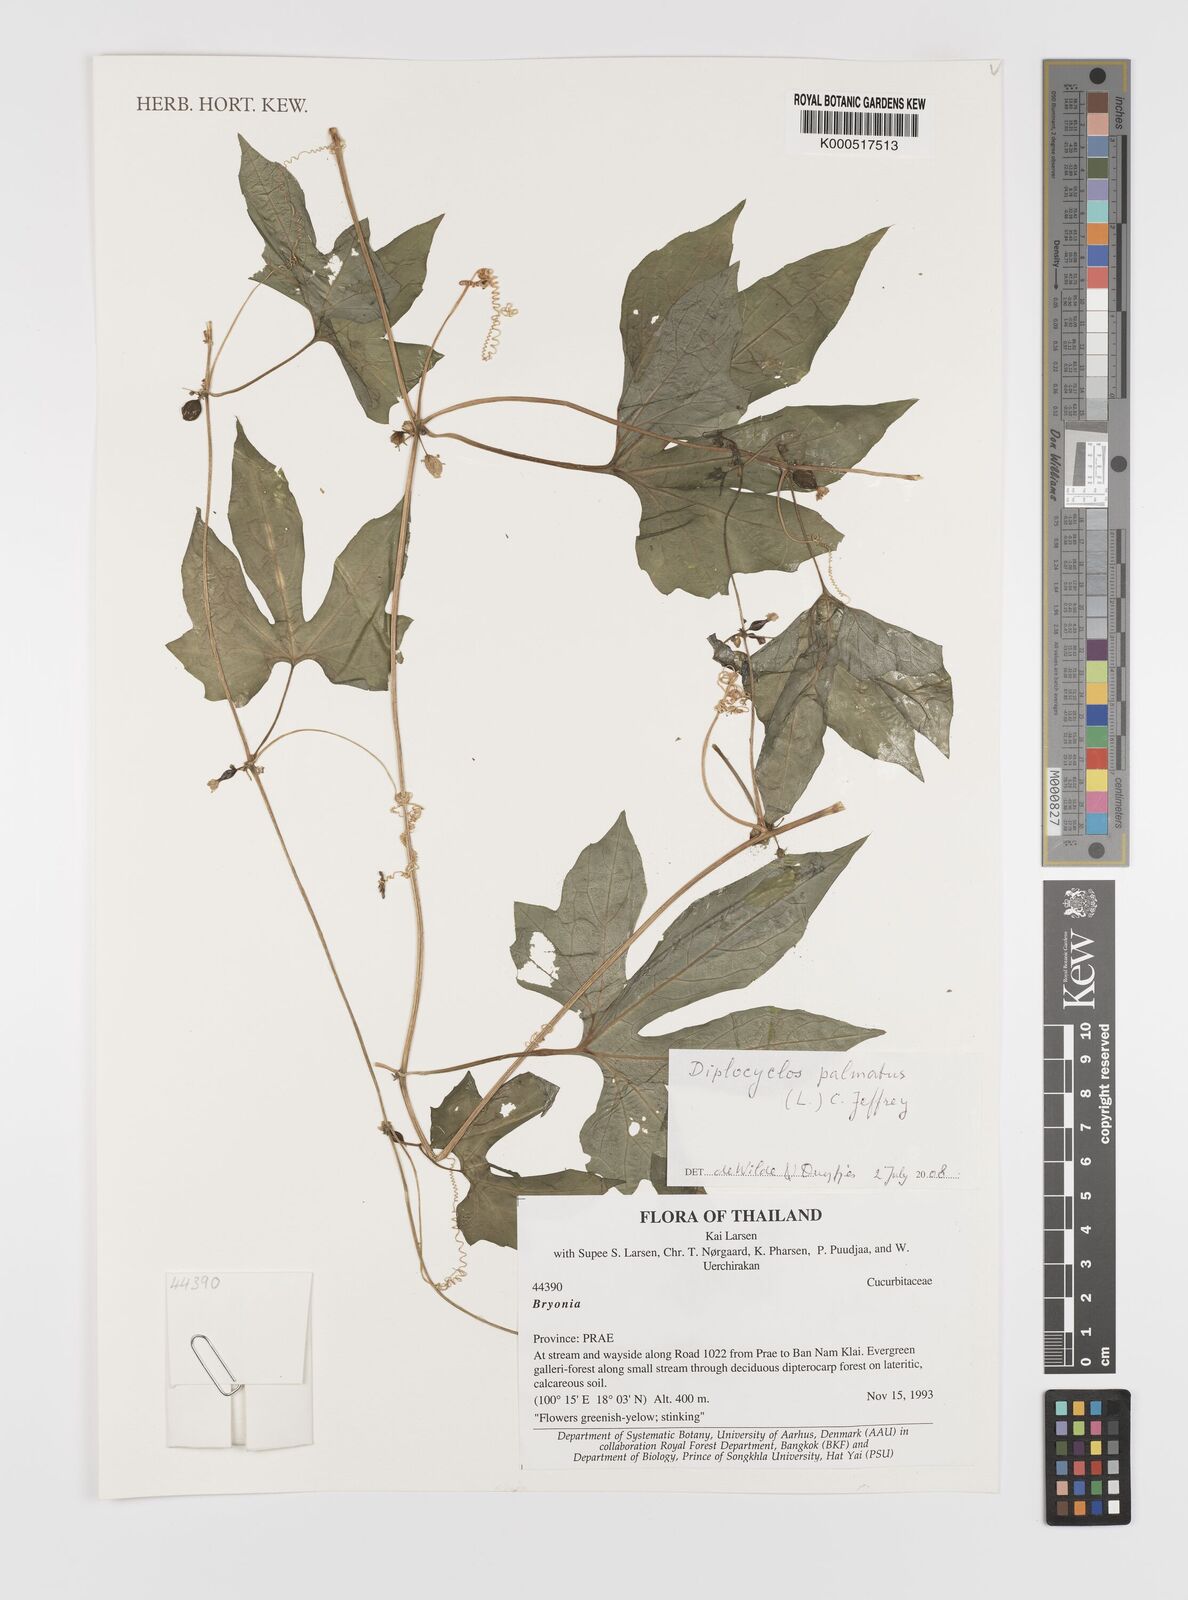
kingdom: Plantae
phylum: Tracheophyta
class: Magnoliopsida
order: Cucurbitales
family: Cucurbitaceae
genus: Diplocyclos
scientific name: Diplocyclos palmatus
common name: Striped-cucumber
